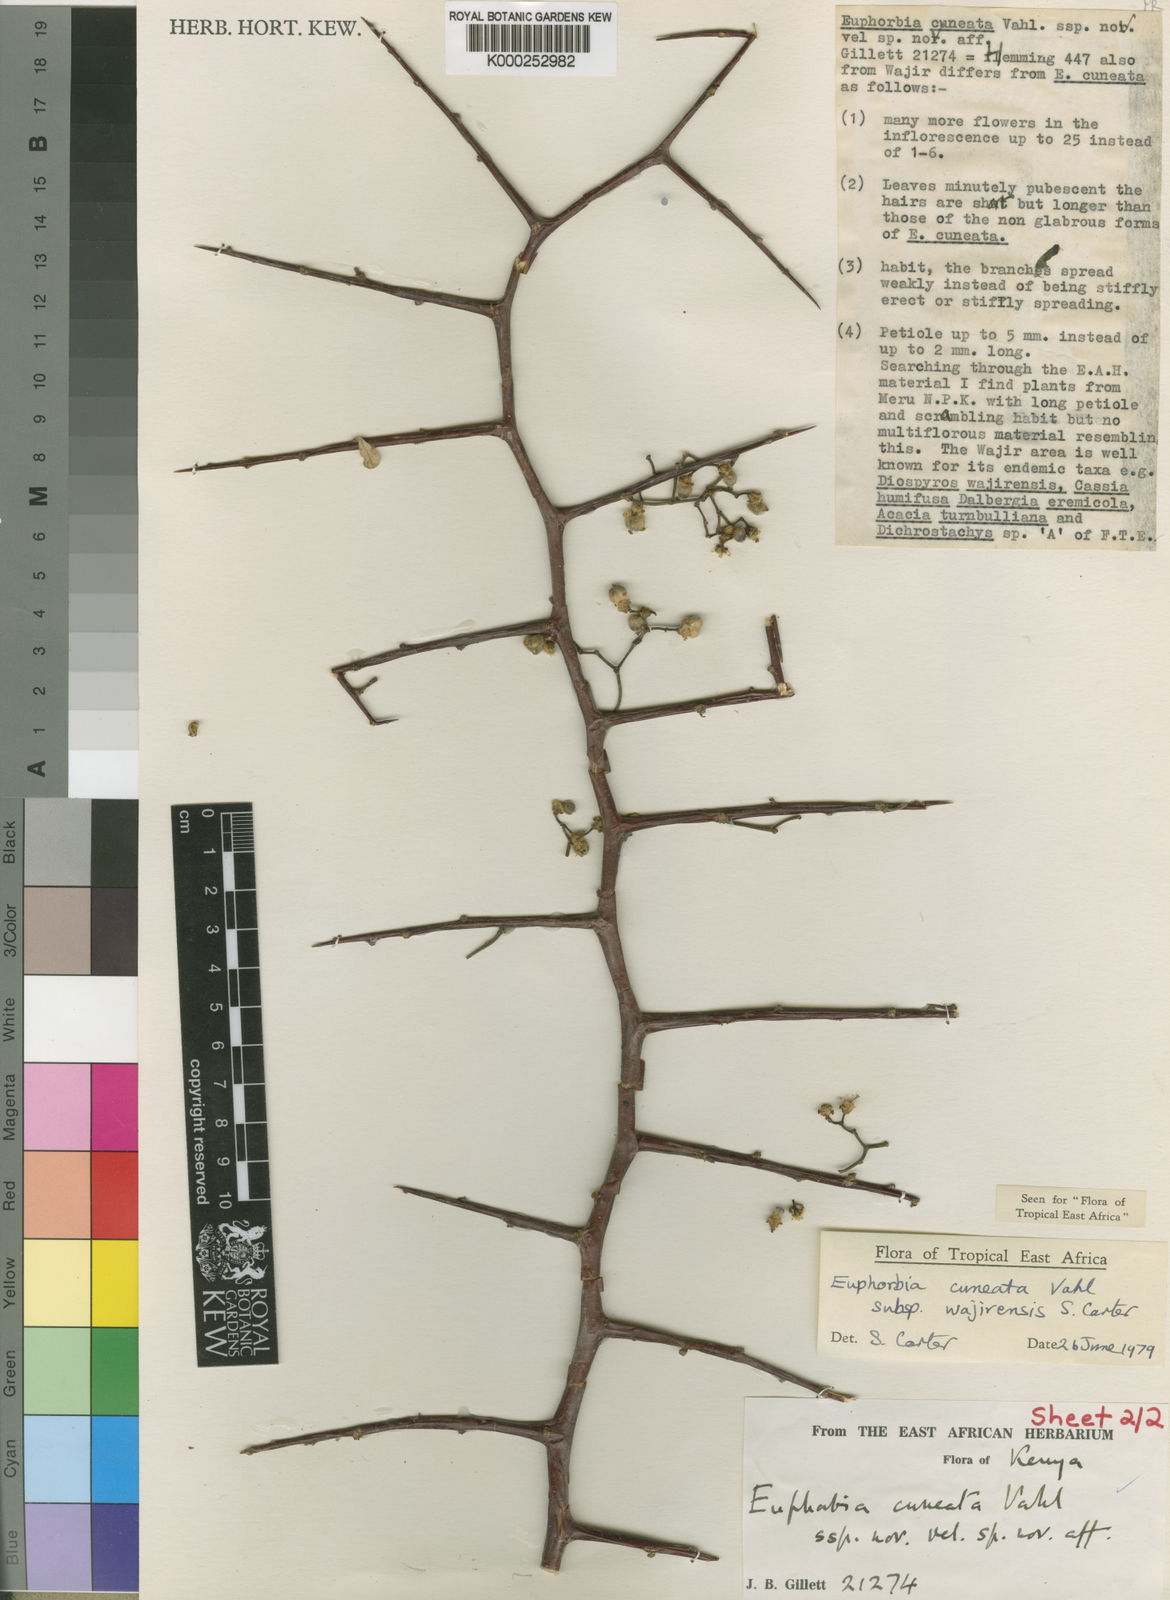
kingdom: Plantae
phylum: Tracheophyta
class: Magnoliopsida
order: Malpighiales
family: Euphorbiaceae
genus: Euphorbia
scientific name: Euphorbia cuneata
